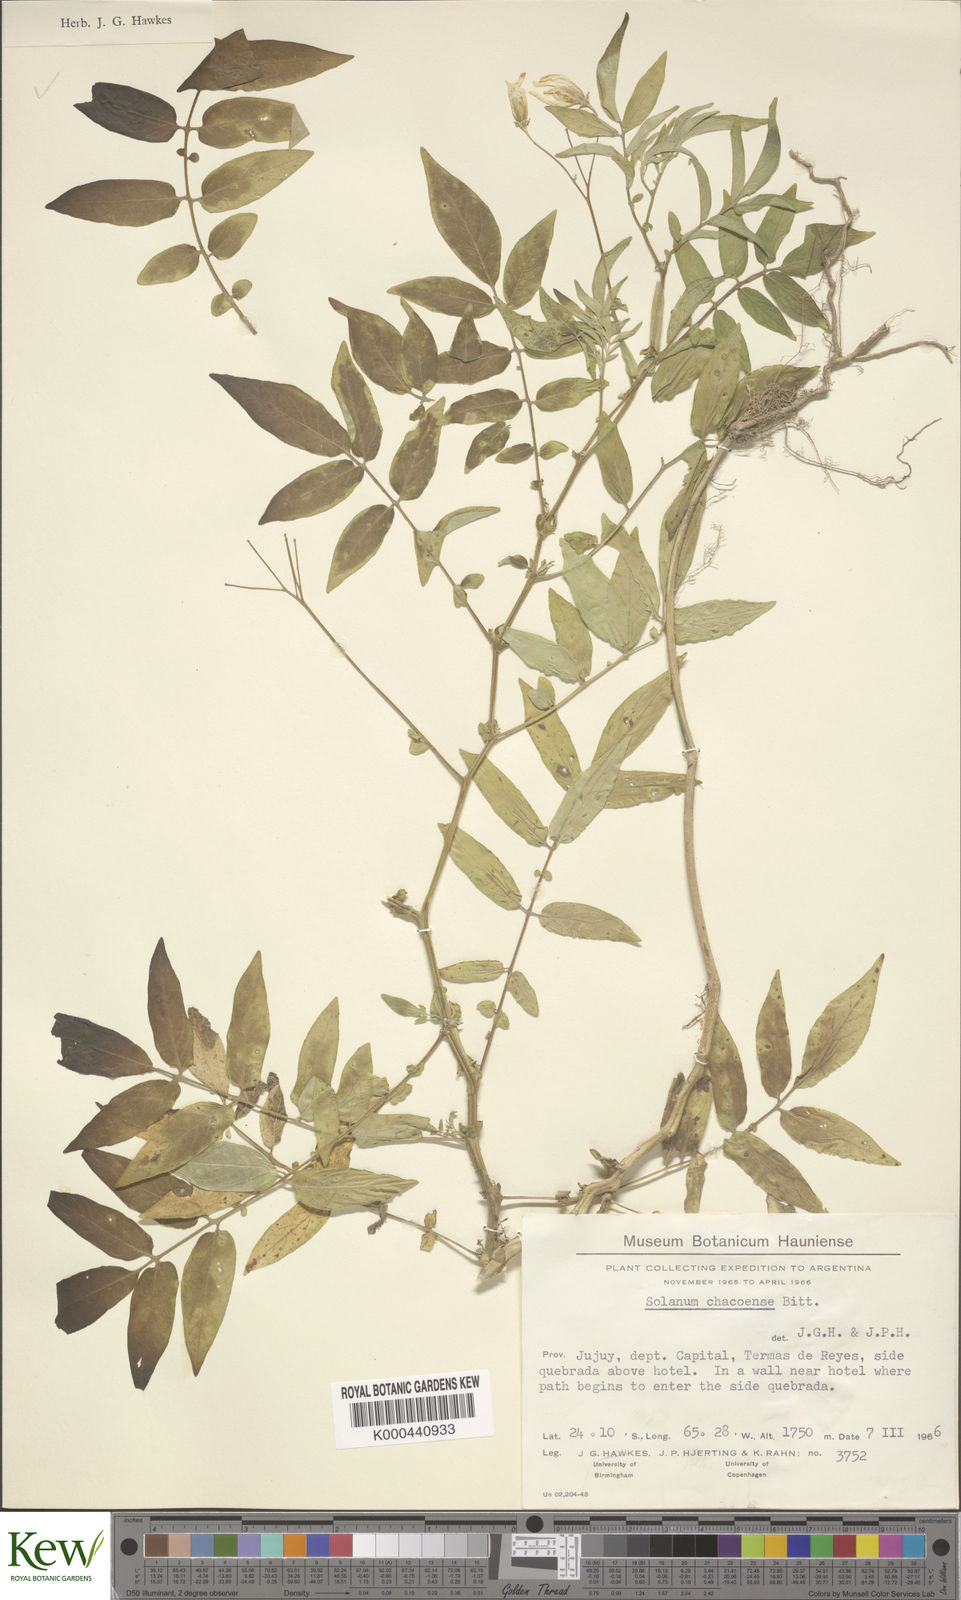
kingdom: Plantae
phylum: Tracheophyta
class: Magnoliopsida
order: Solanales
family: Solanaceae
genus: Solanum
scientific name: Solanum chacoense
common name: Chaco potato
